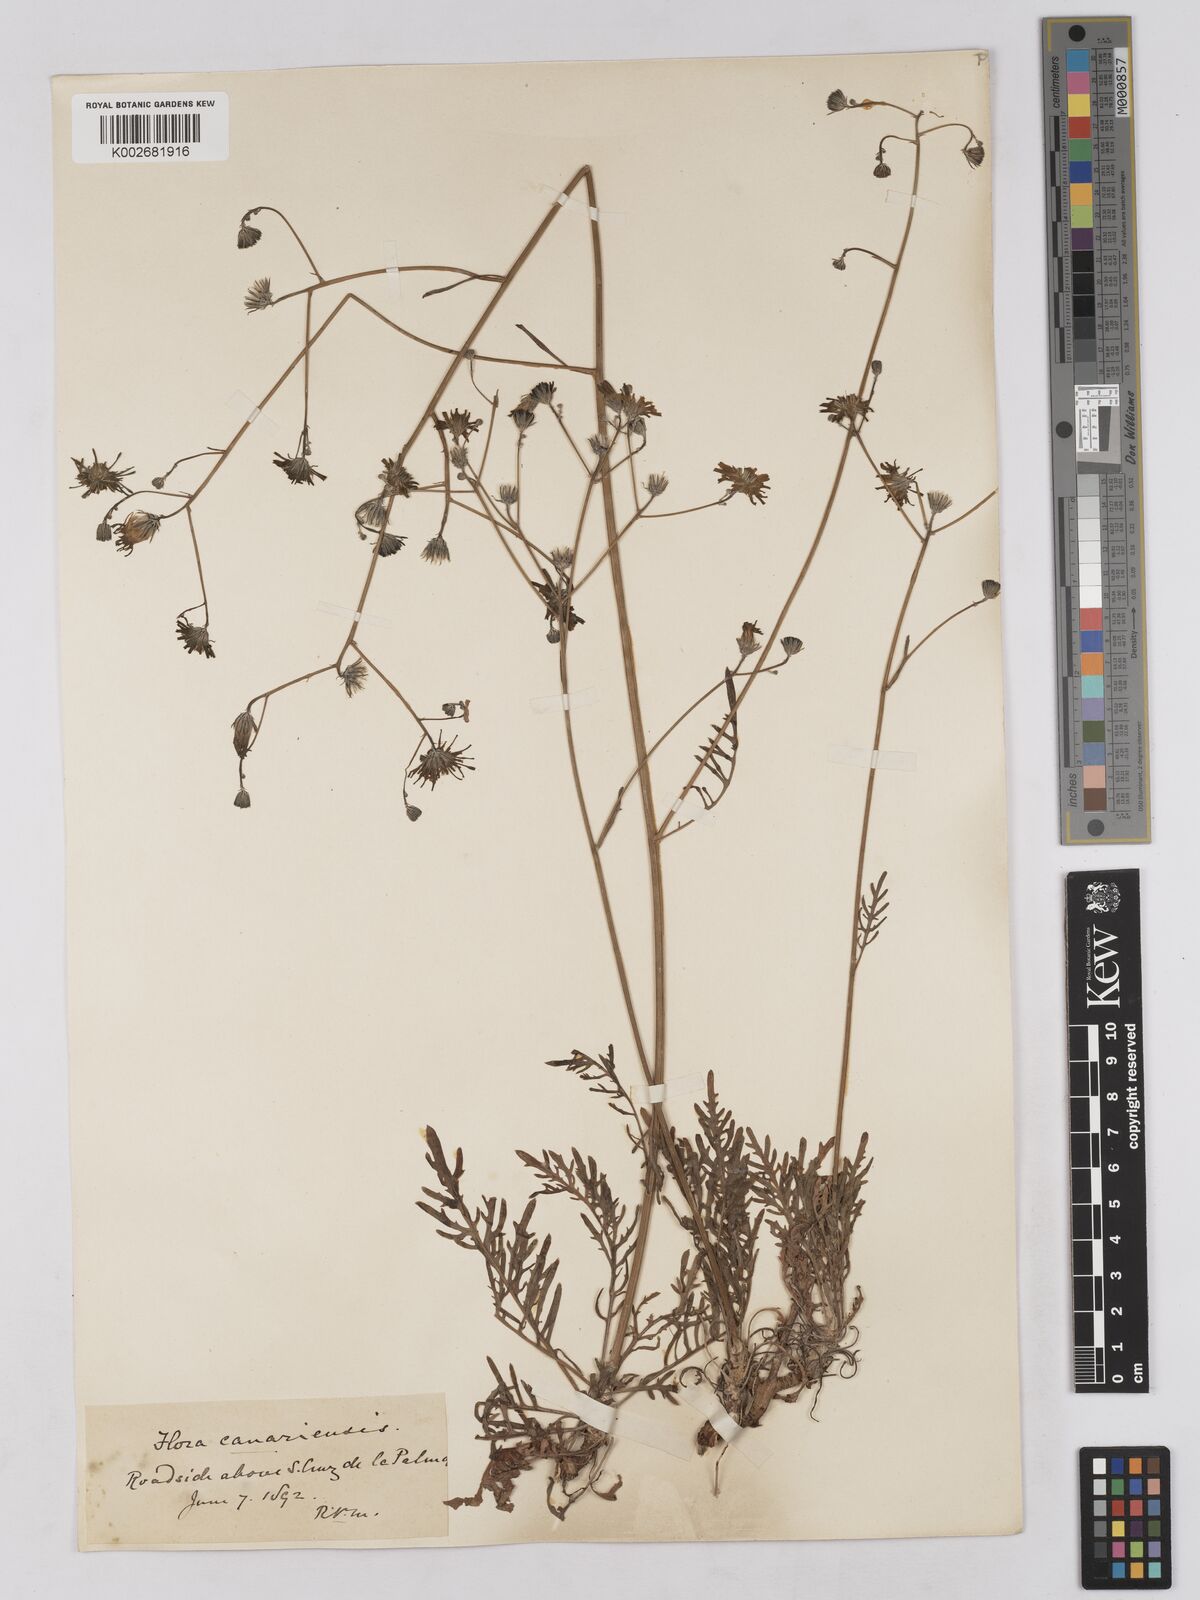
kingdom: Plantae
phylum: Tracheophyta
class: Magnoliopsida
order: Asterales
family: Asteraceae
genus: Tolpis
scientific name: Tolpis laciniata
